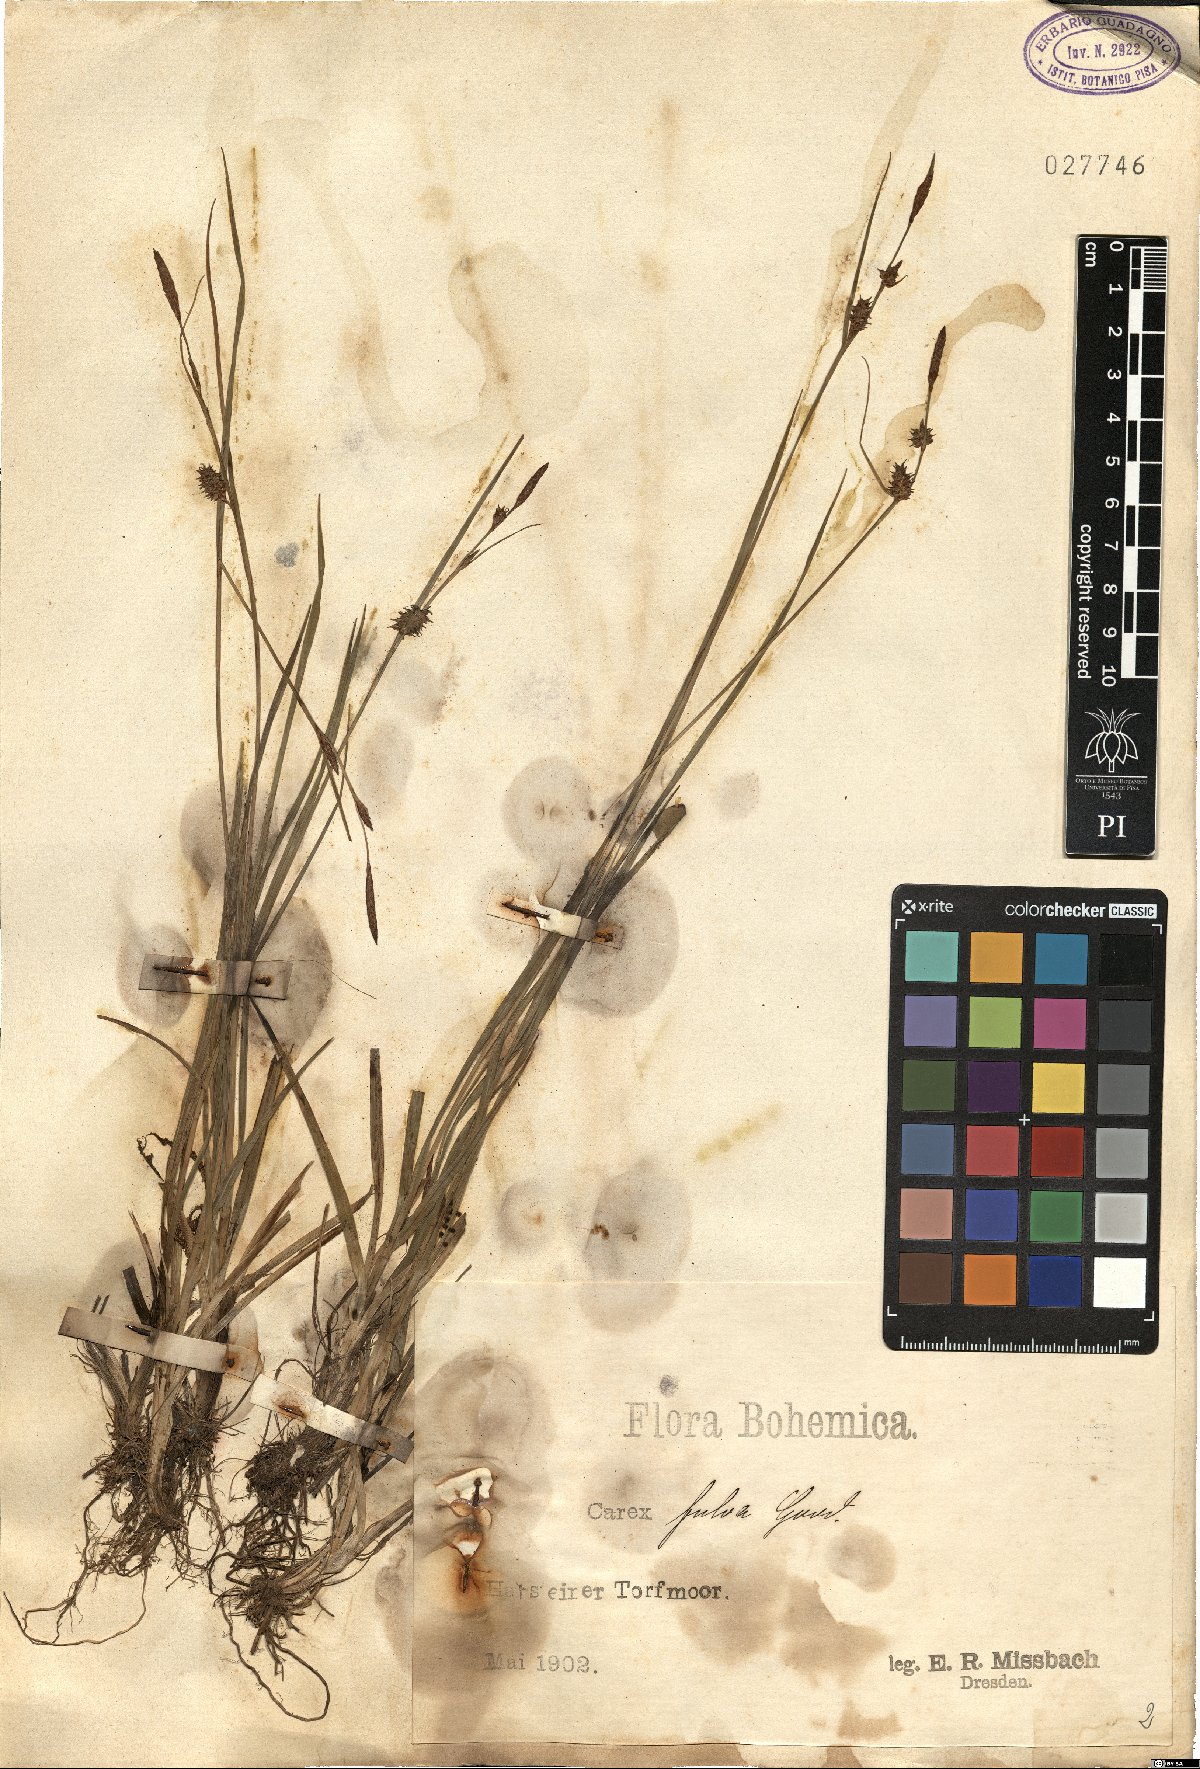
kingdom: Plantae
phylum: Tracheophyta
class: Liliopsida
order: Poales
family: Cyperaceae
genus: Carex
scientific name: Carex fulva
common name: Leutz's sedge
